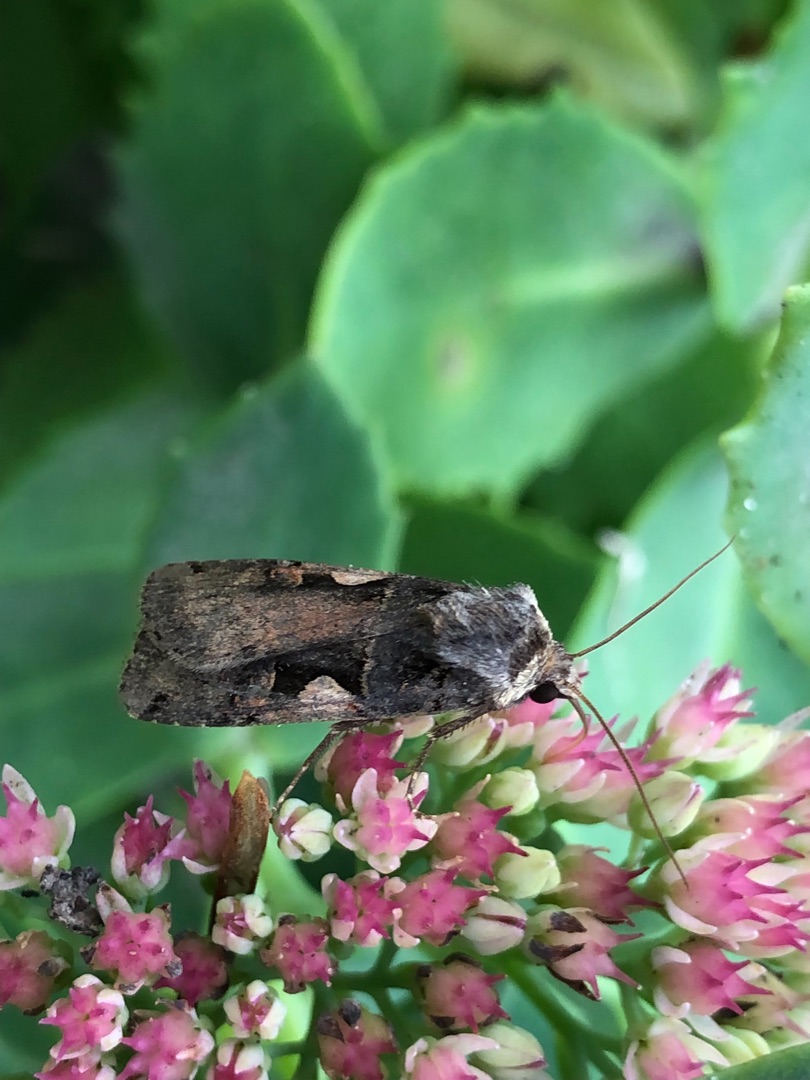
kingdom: Animalia
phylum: Arthropoda
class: Insecta
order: Lepidoptera
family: Noctuidae
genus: Xestia
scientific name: Xestia c-nigrum
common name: Det sorte c
